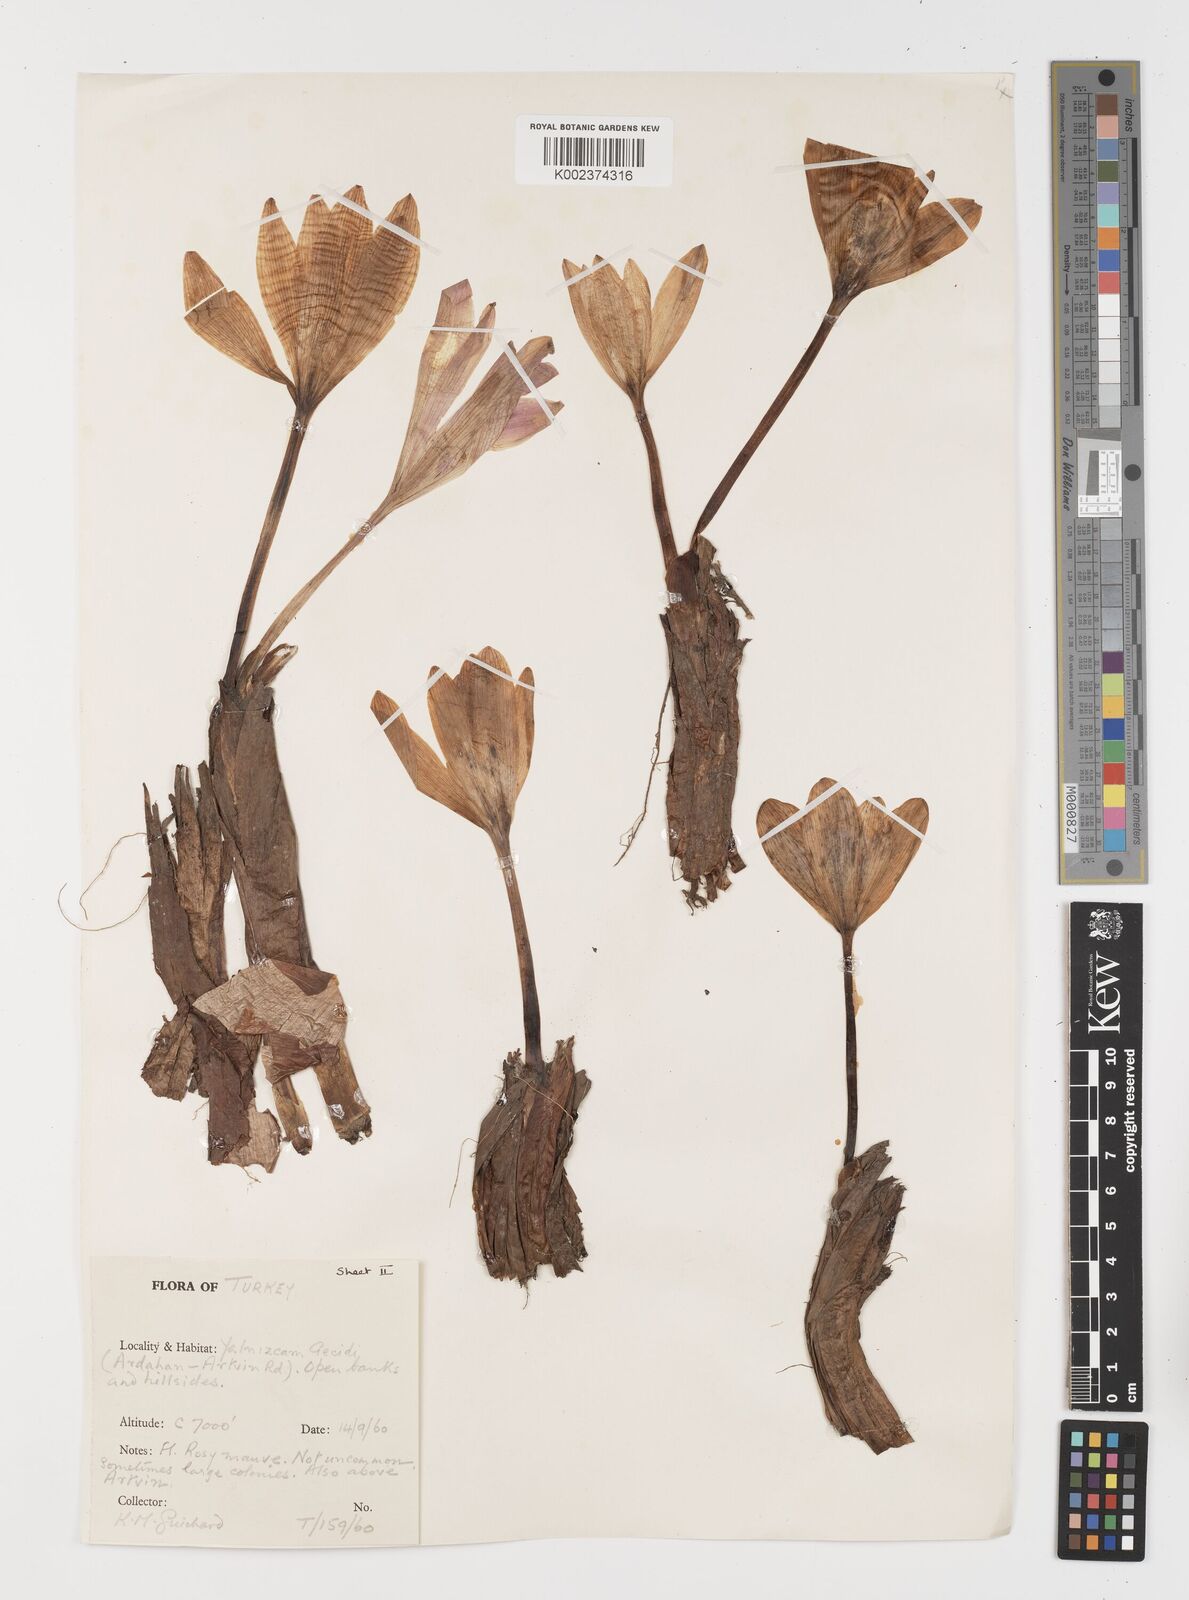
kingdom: Plantae
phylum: Tracheophyta
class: Liliopsida
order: Liliales
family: Colchicaceae
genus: Colchicum
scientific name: Colchicum
